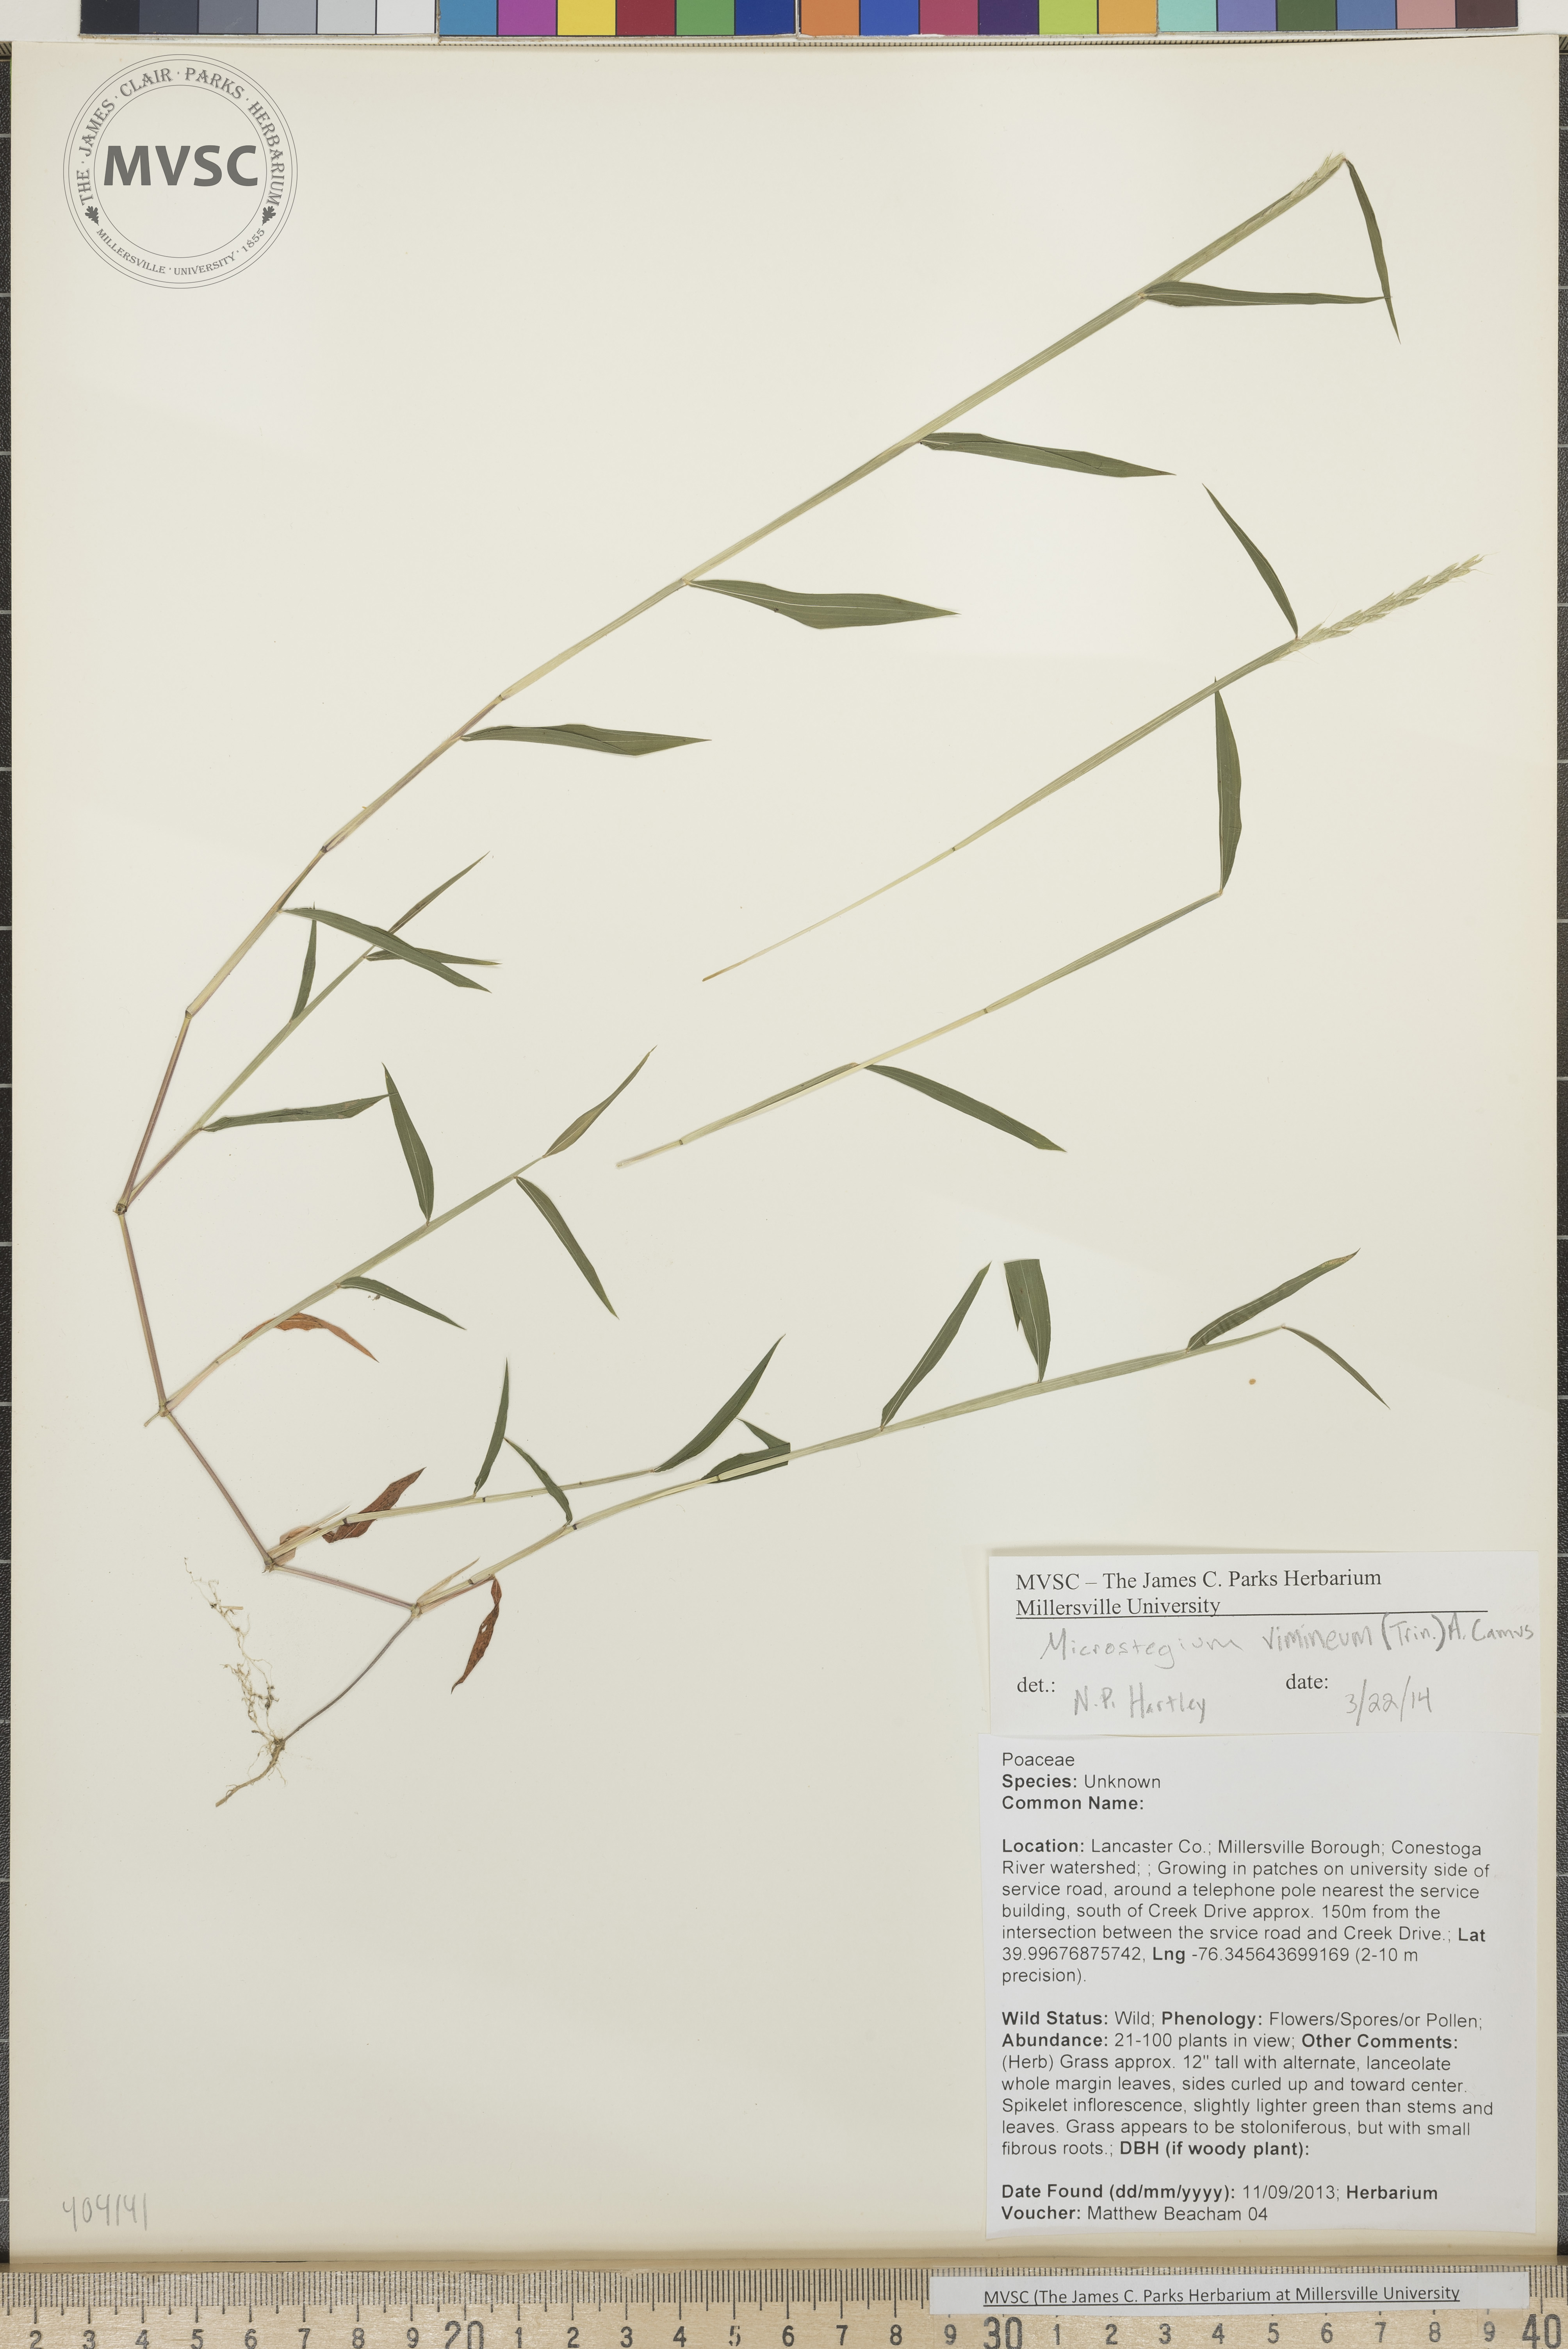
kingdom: Plantae
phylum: Tracheophyta
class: Liliopsida
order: Poales
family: Poaceae
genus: Microstegium
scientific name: Microstegium vimineum
